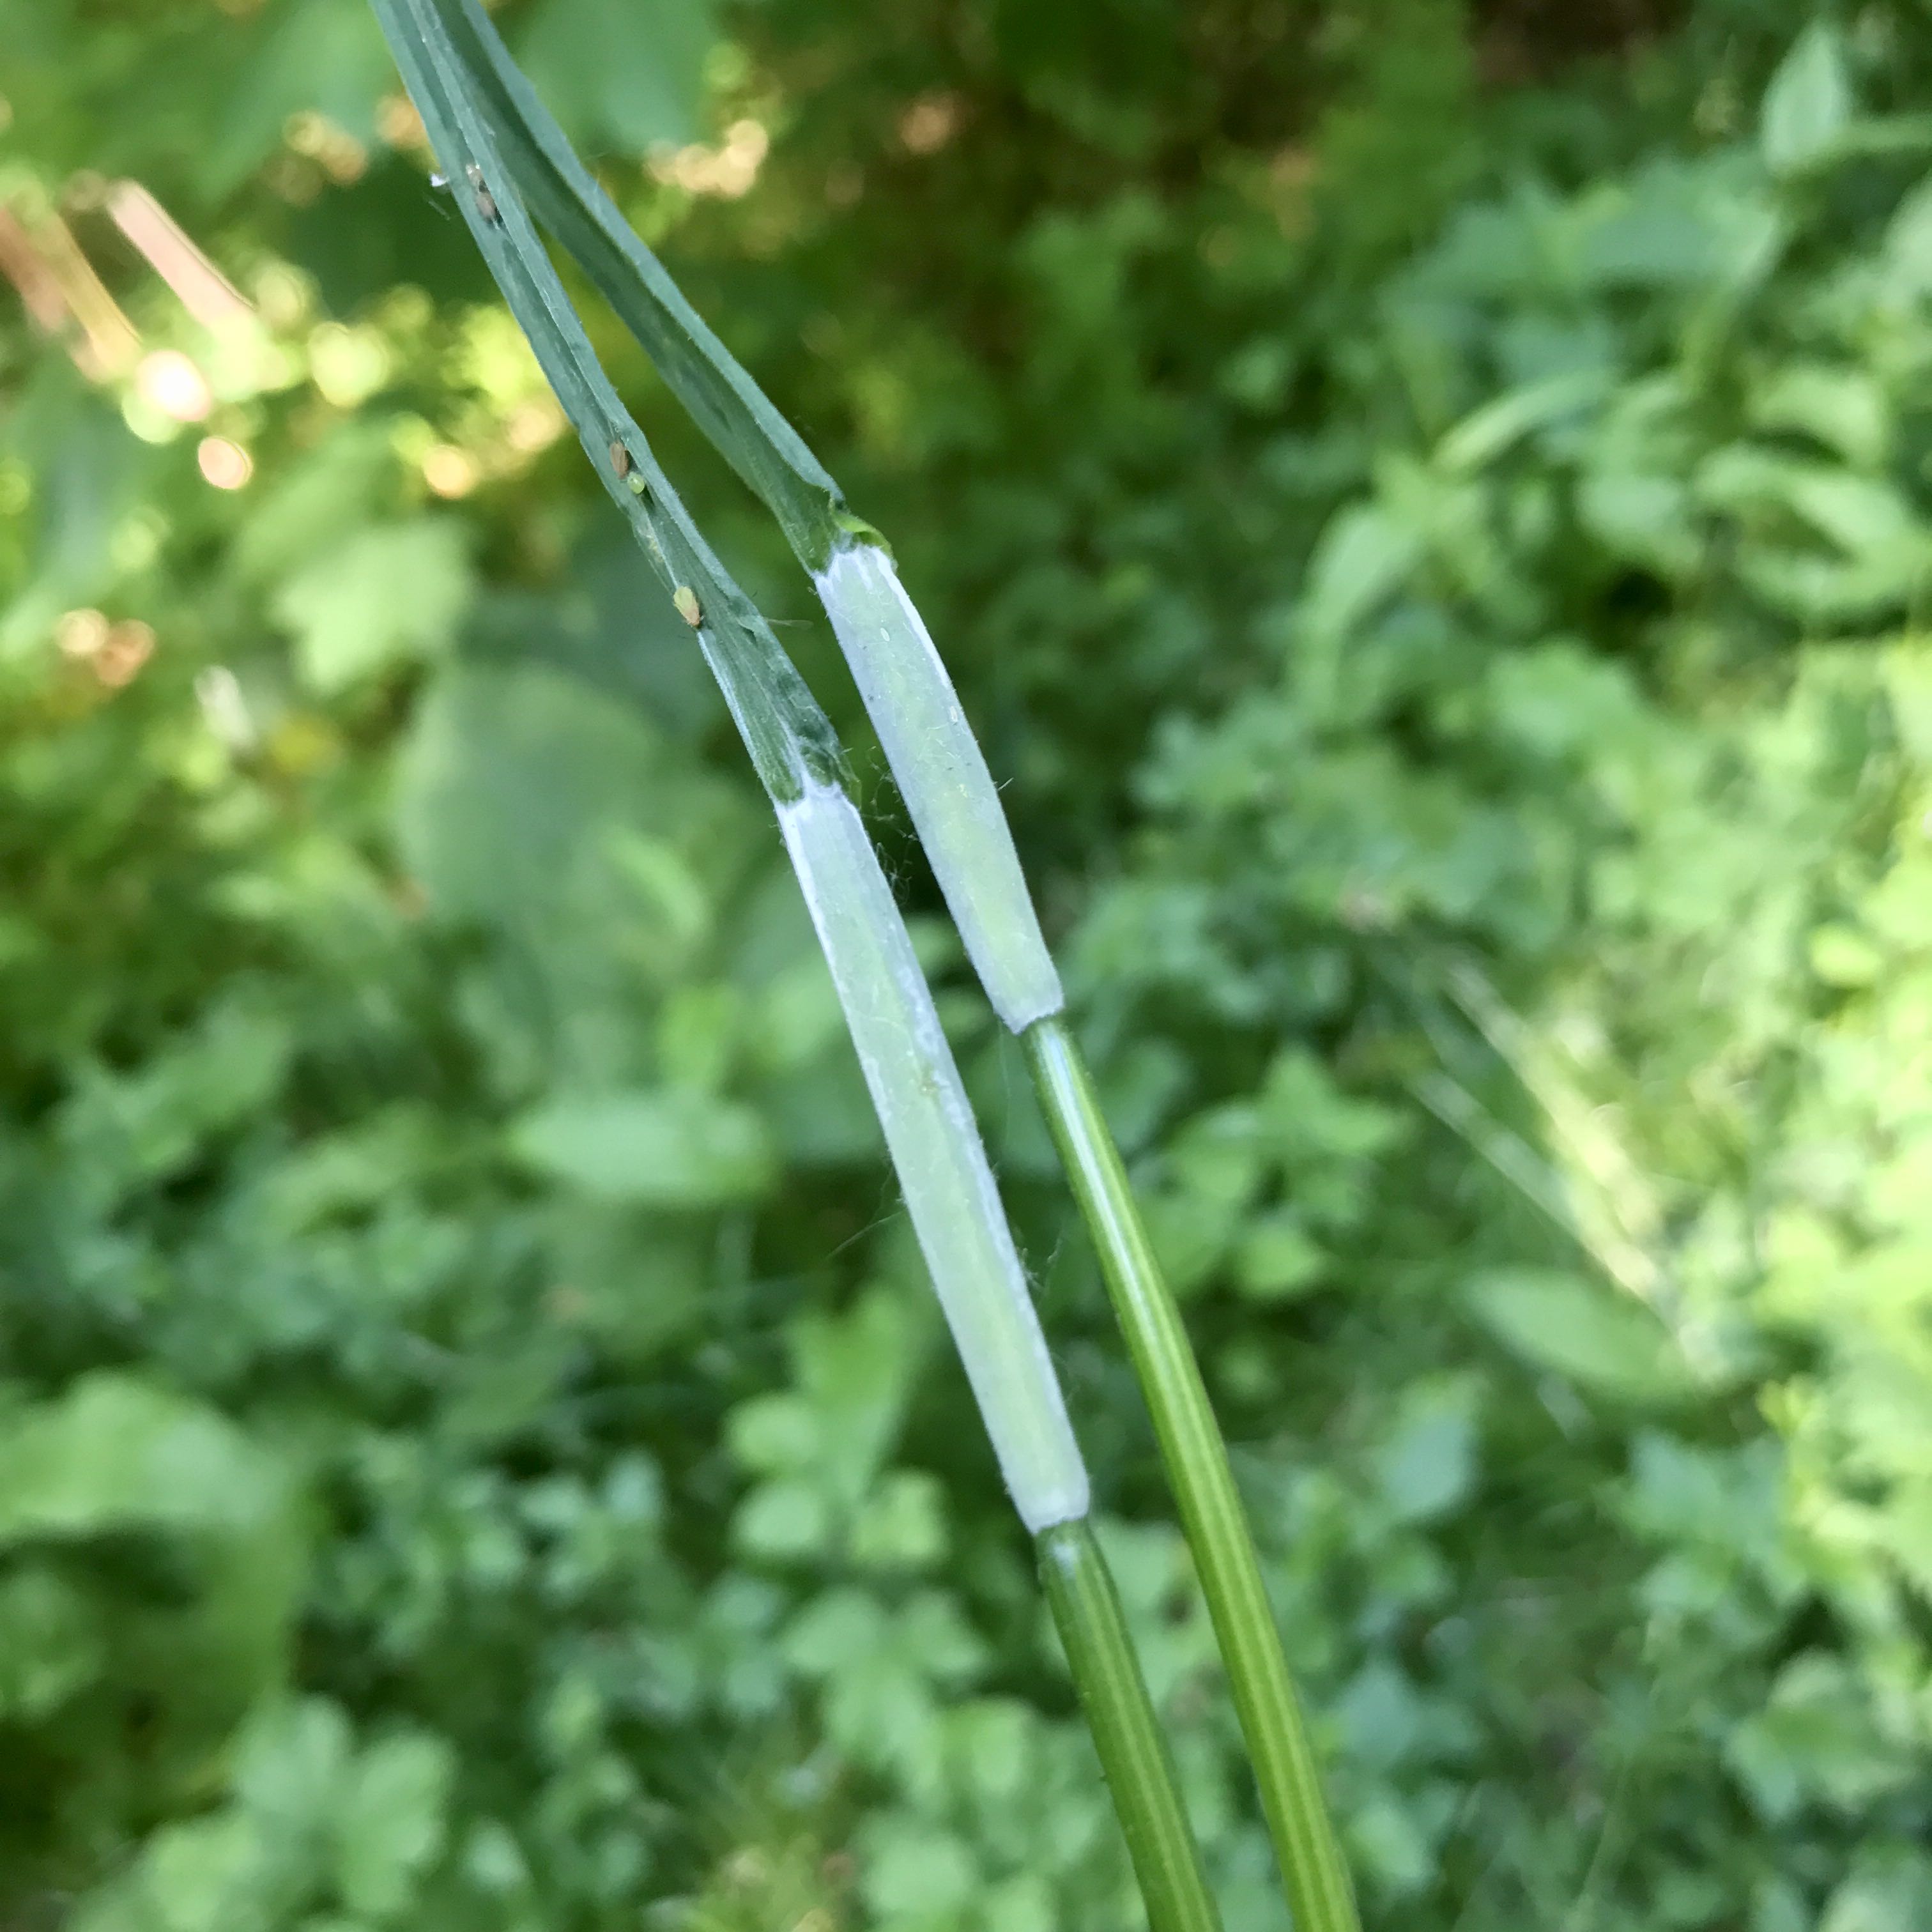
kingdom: Fungi
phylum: Ascomycota
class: Sordariomycetes
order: Hypocreales
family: Clavicipitaceae
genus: Epichloe
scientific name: Epichloe typhina
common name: almindelig kernerør
